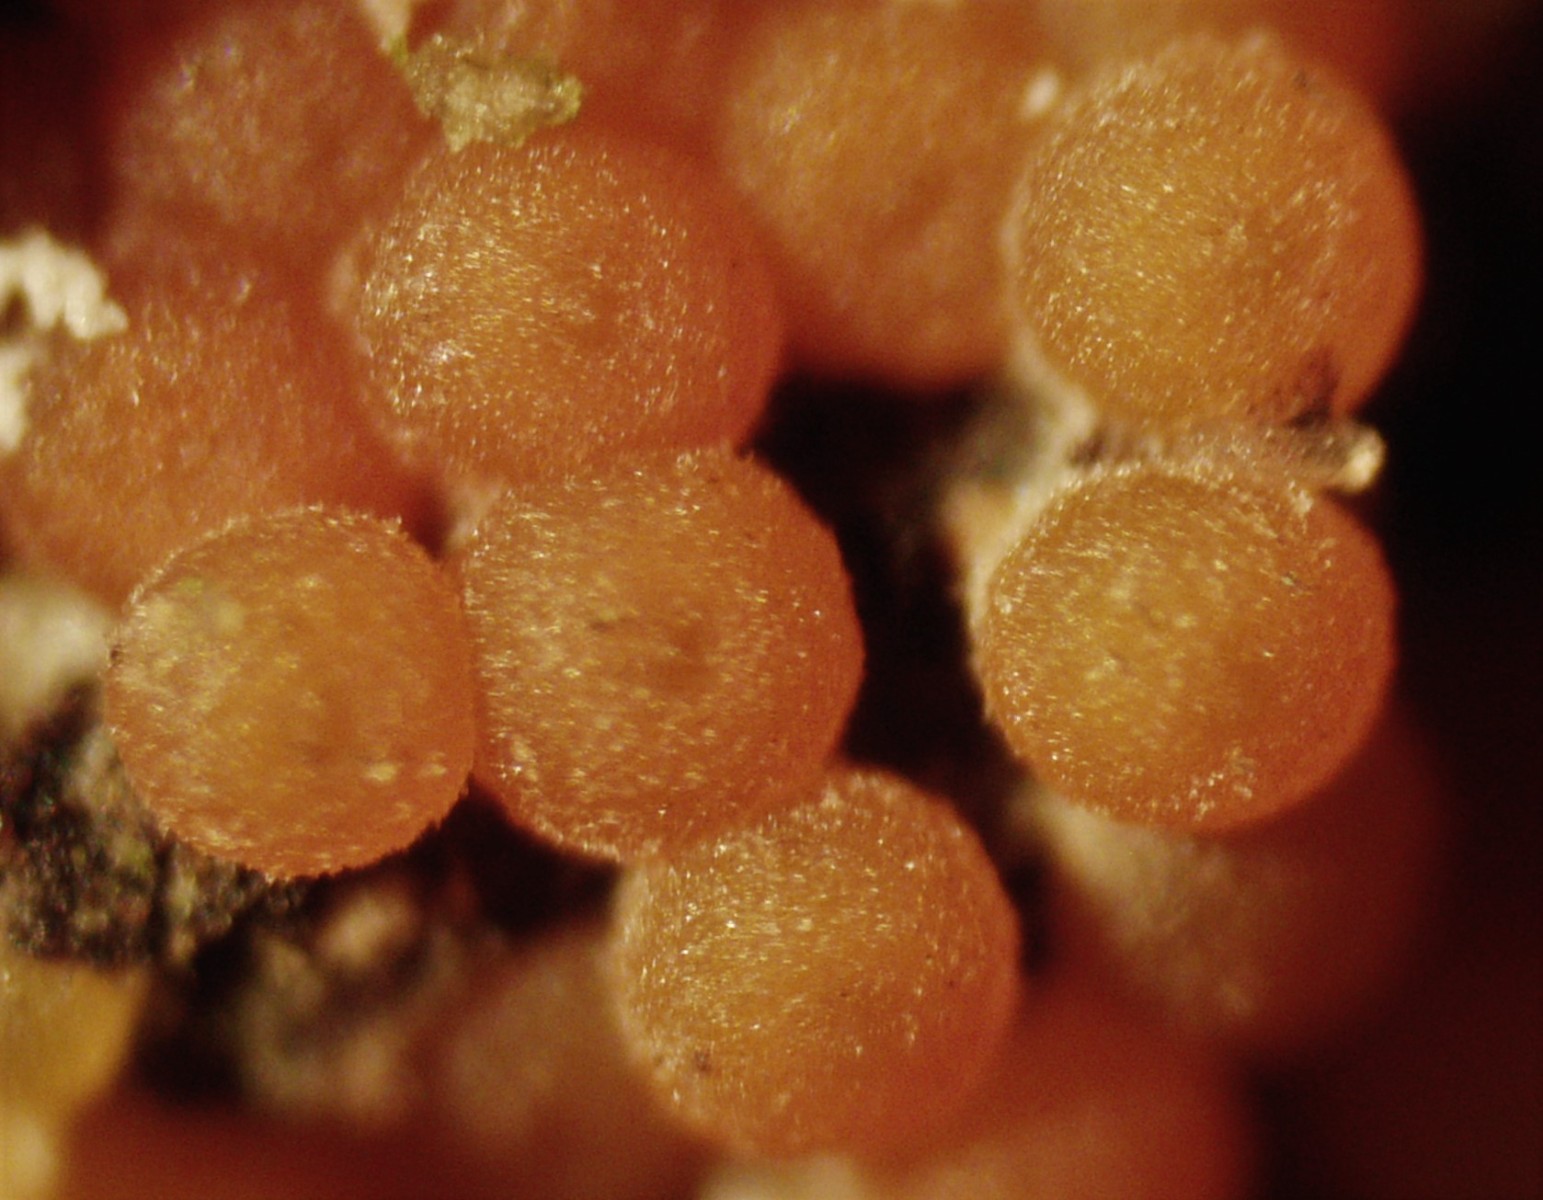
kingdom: Fungi
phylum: Ascomycota
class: Sordariomycetes
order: Hypocreales
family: Hypocreaceae
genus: Hypomyces
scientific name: Hypomyces aurantius
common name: almindelig snylteskorpe
